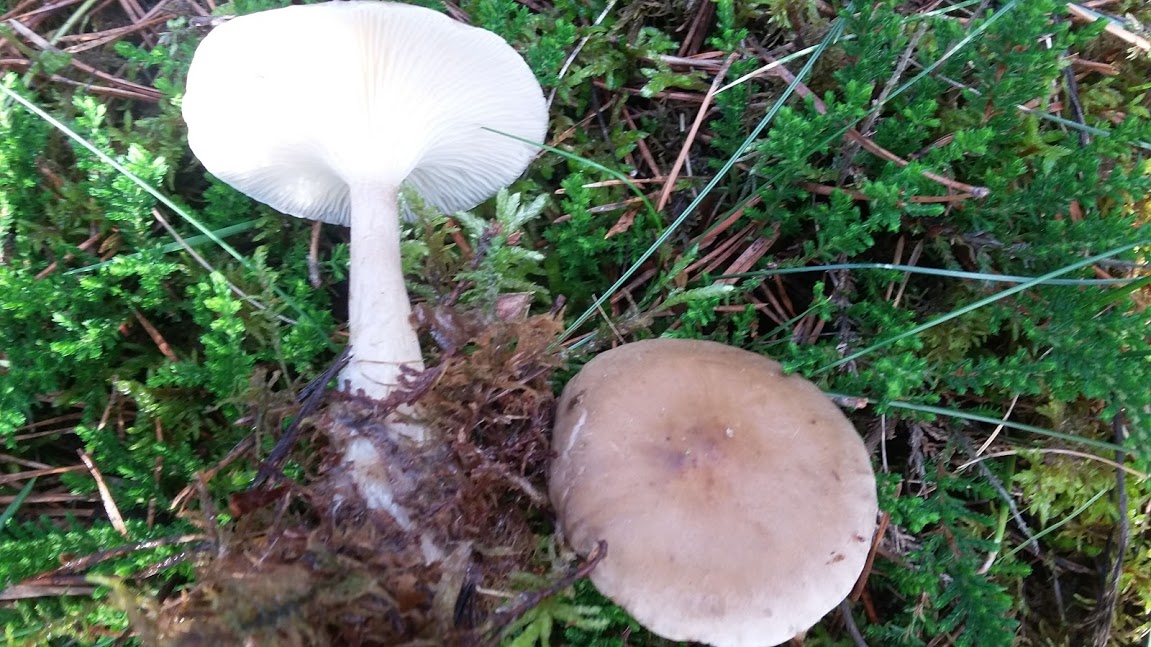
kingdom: Fungi
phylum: Basidiomycota
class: Agaricomycetes
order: Agaricales
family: Hygrophoraceae
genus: Ampulloclitocybe
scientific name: Ampulloclitocybe clavipes
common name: køllefod
